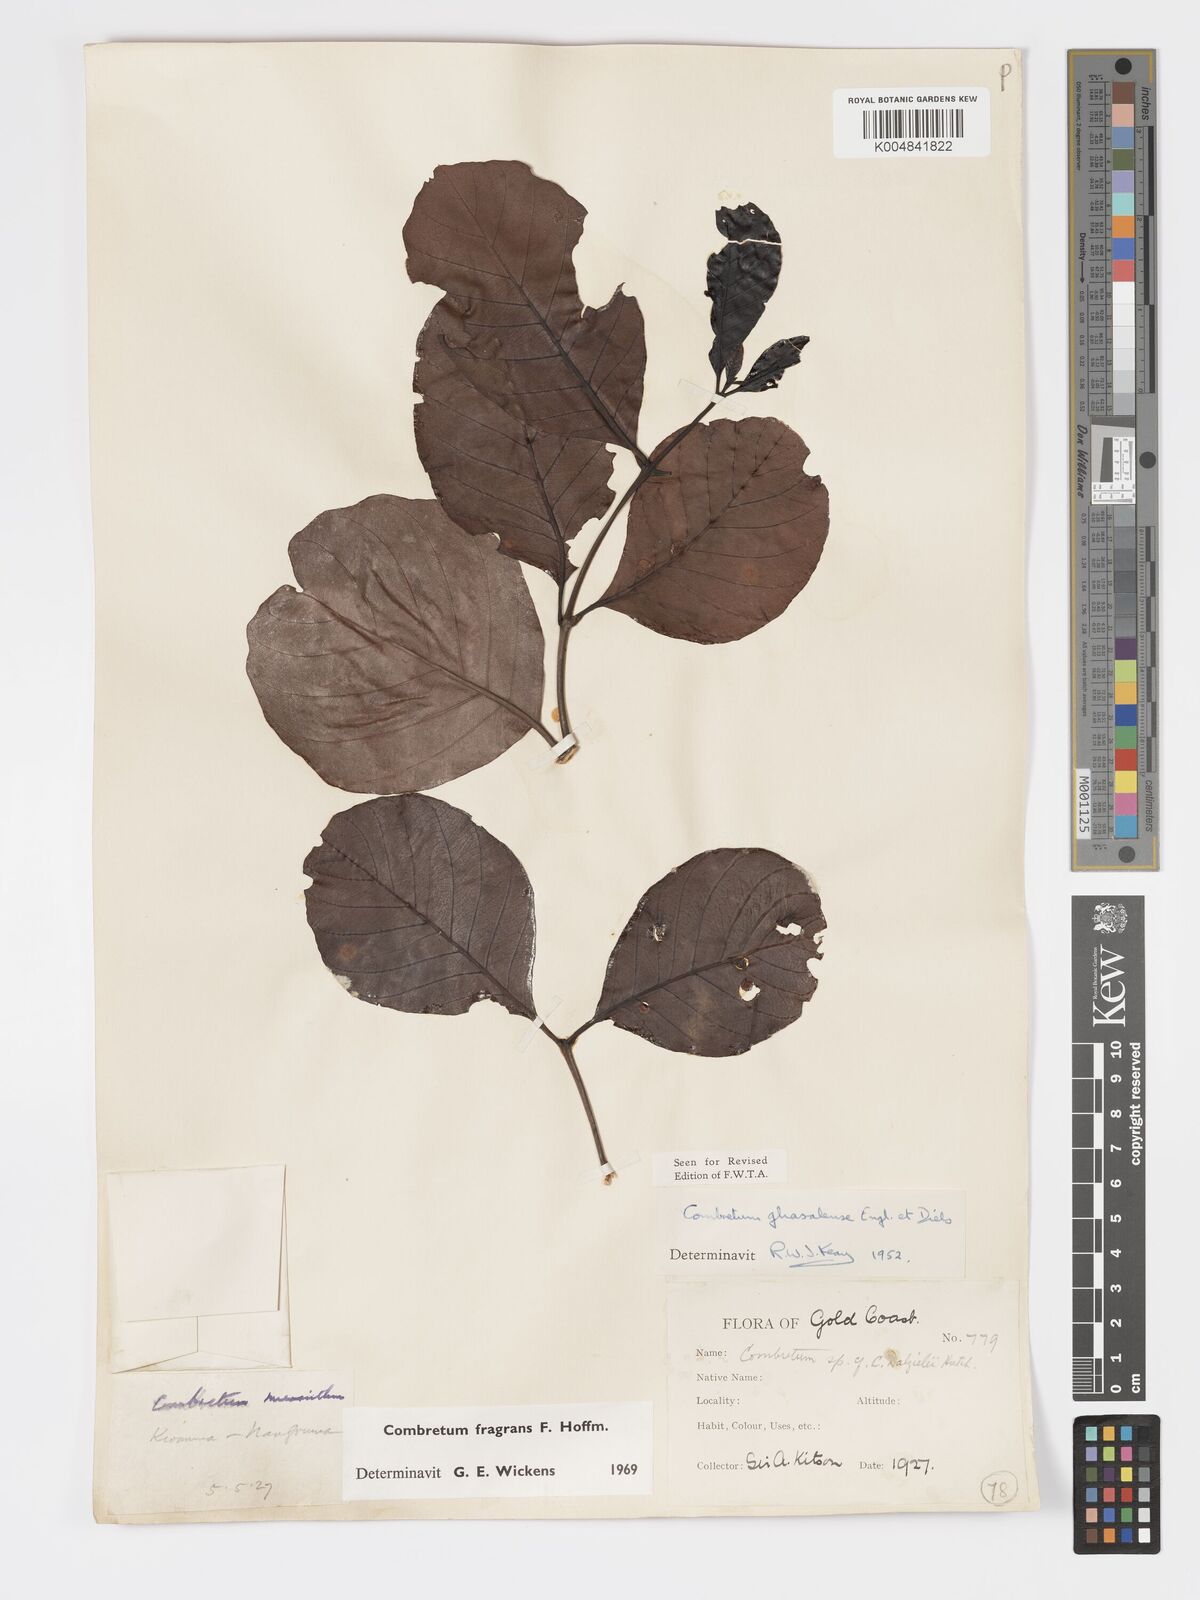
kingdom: Plantae
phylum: Tracheophyta
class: Magnoliopsida
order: Myrtales
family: Combretaceae
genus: Combretum
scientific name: Combretum adenogonium
